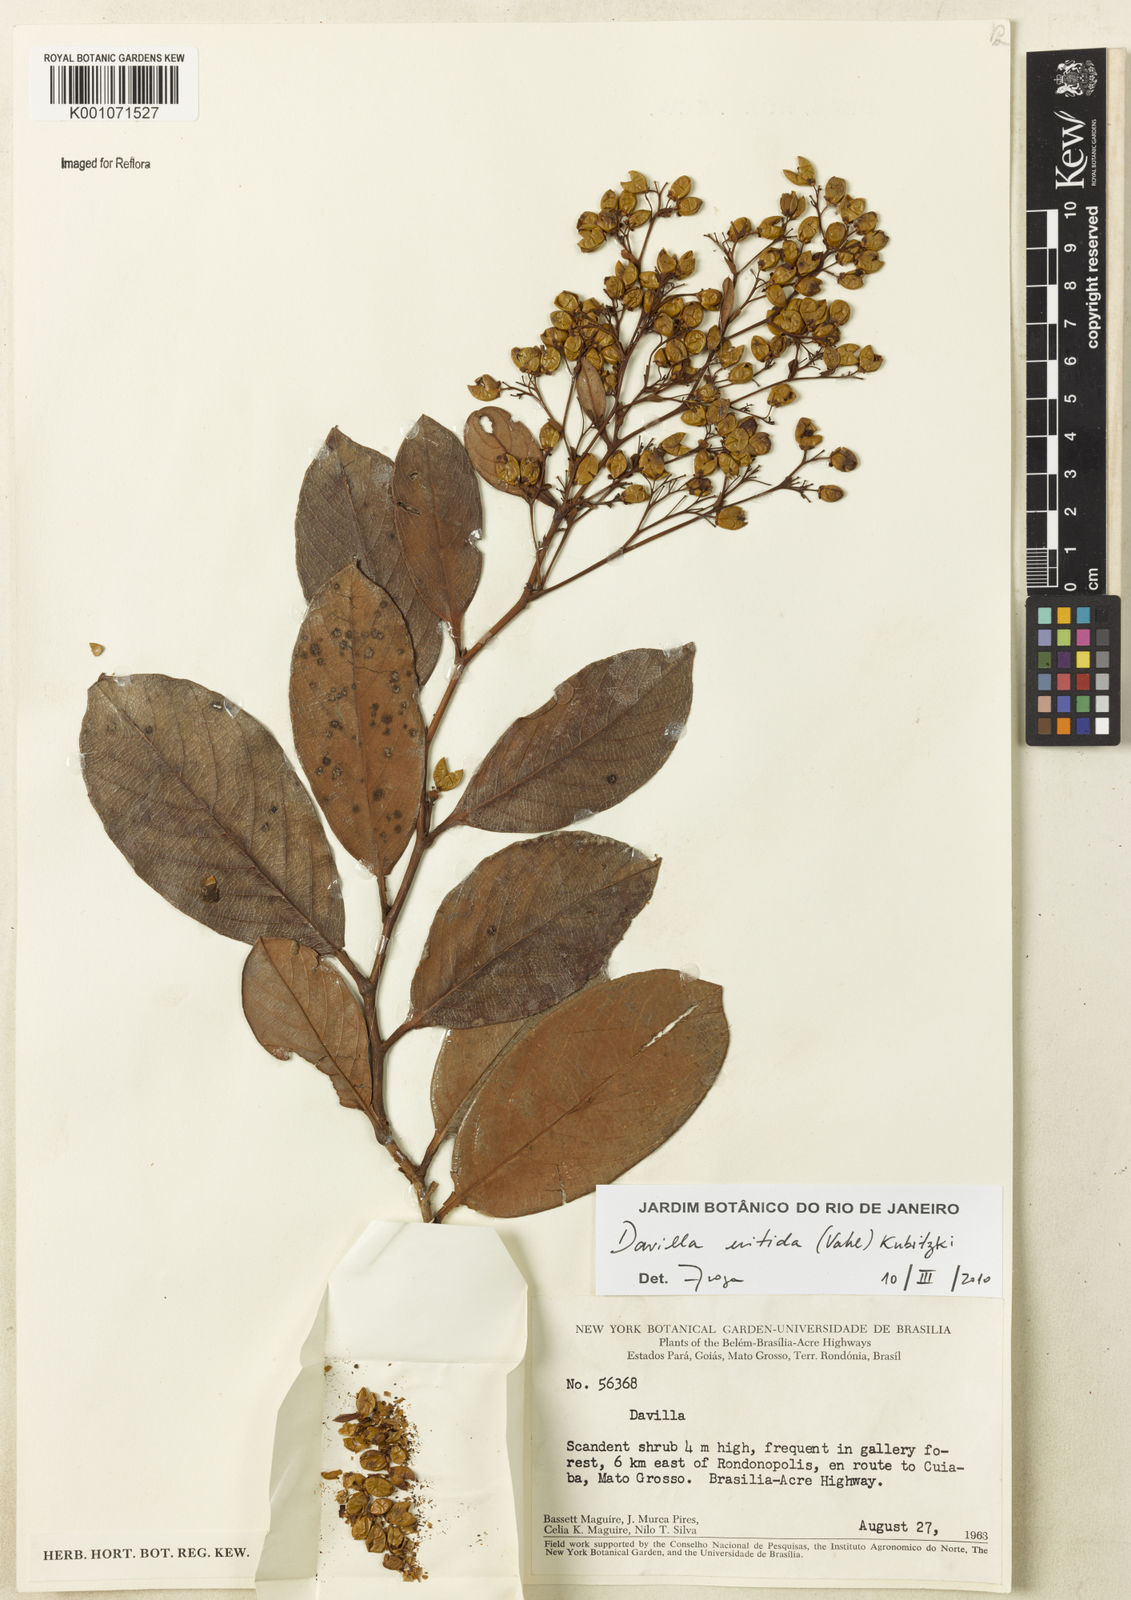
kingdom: Plantae
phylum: Tracheophyta
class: Magnoliopsida
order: Dilleniales
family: Dilleniaceae
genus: Davilla
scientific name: Davilla nitida
